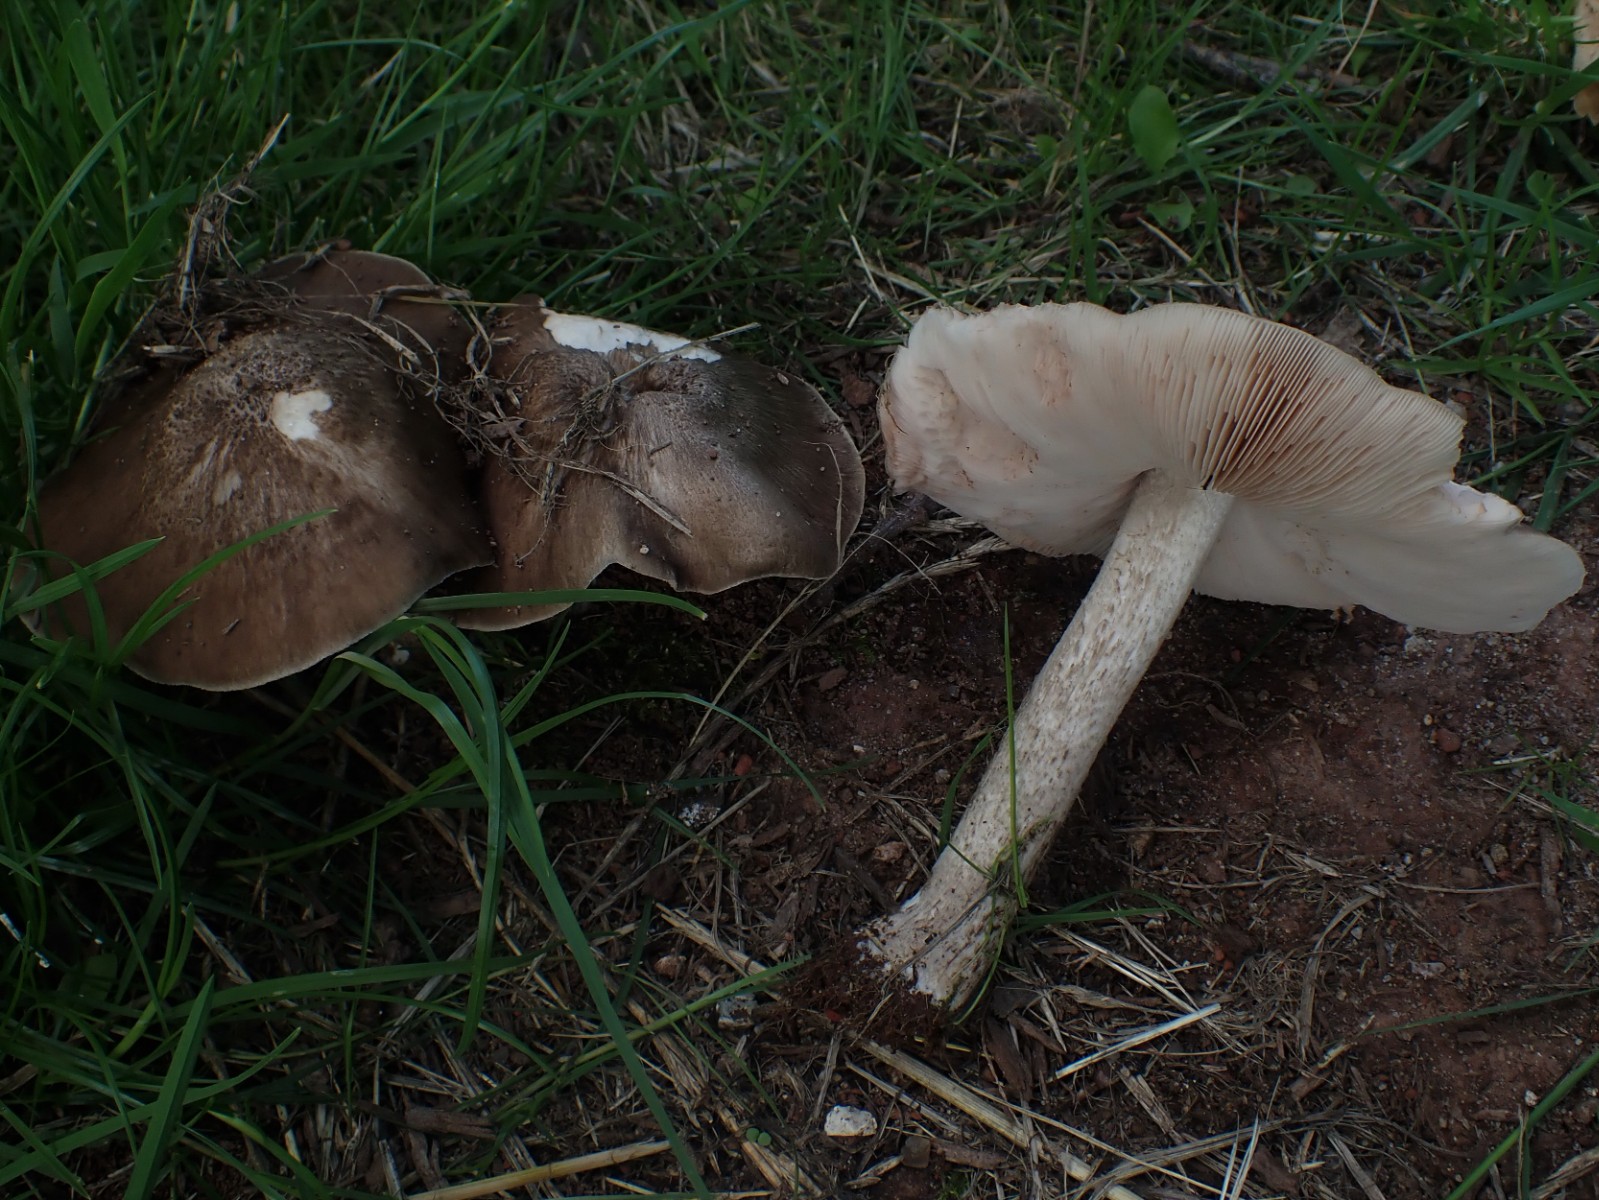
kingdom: Fungi
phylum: Basidiomycota
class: Agaricomycetes
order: Agaricales
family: Pluteaceae
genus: Pluteus
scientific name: Pluteus cervinus
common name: sodfarvet skærmhat
